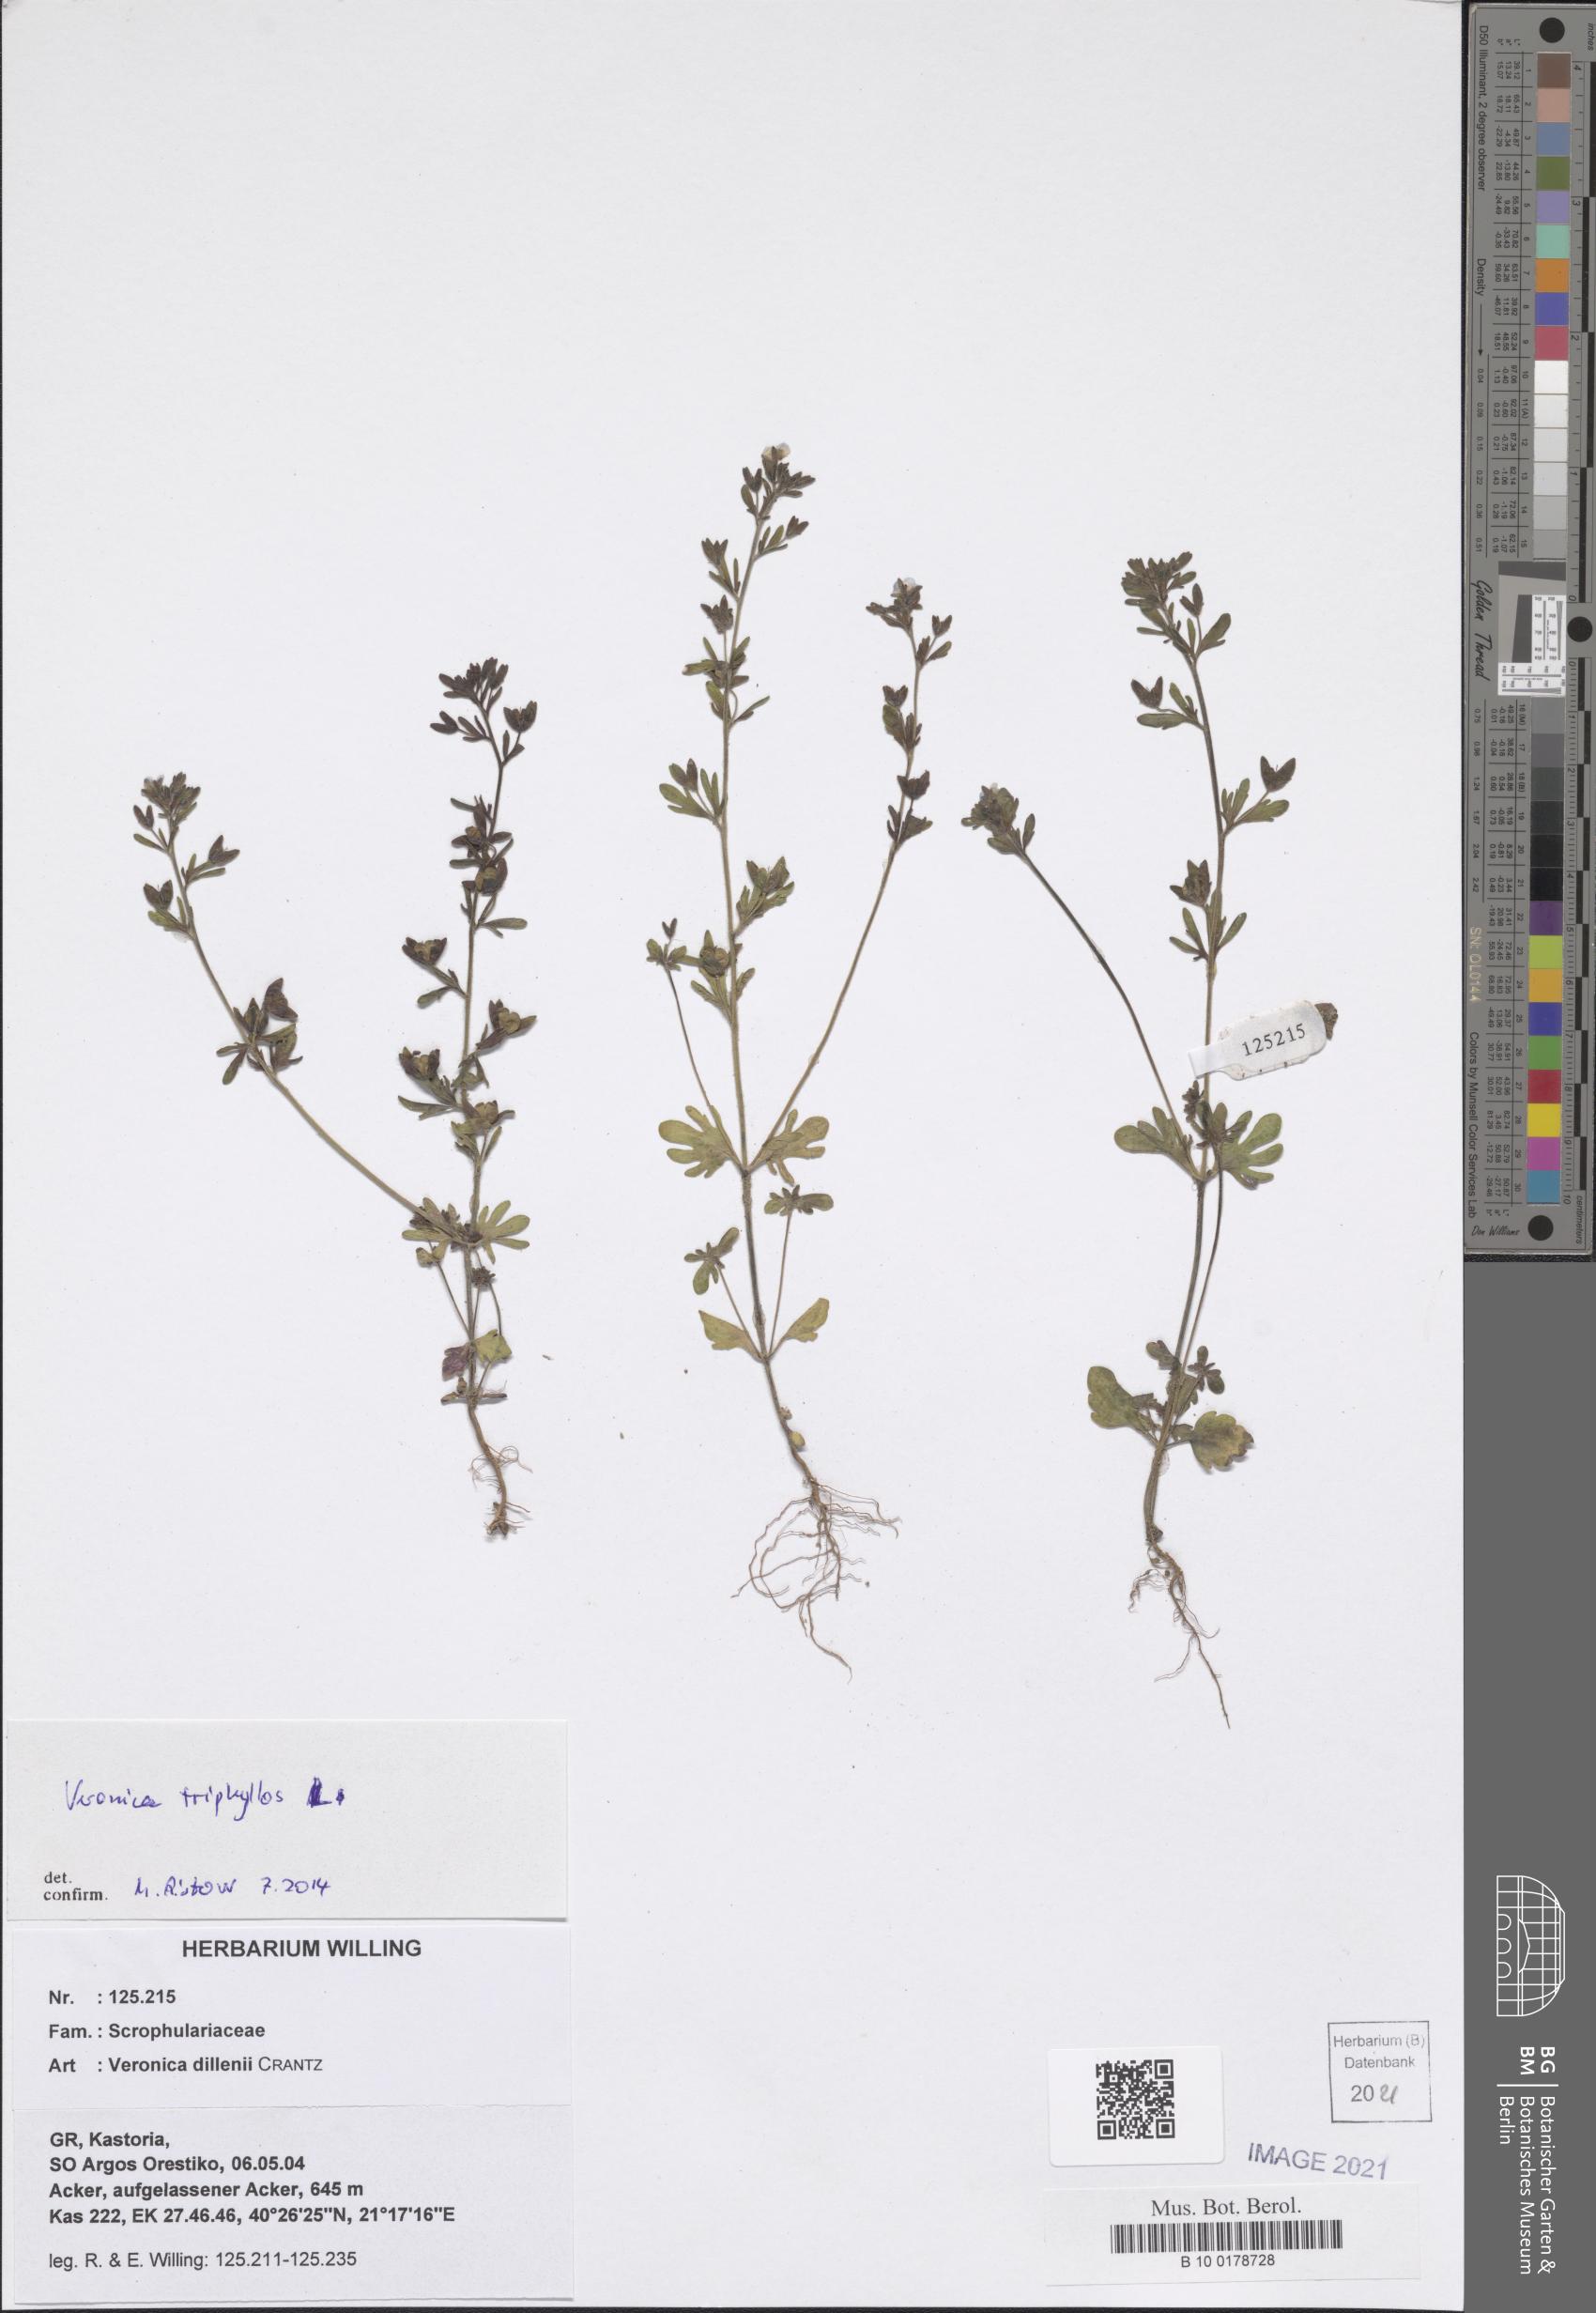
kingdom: Plantae
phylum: Tracheophyta
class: Magnoliopsida
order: Lamiales
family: Plantaginaceae
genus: Veronica
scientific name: Veronica triphyllos
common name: Fingered speedwell
